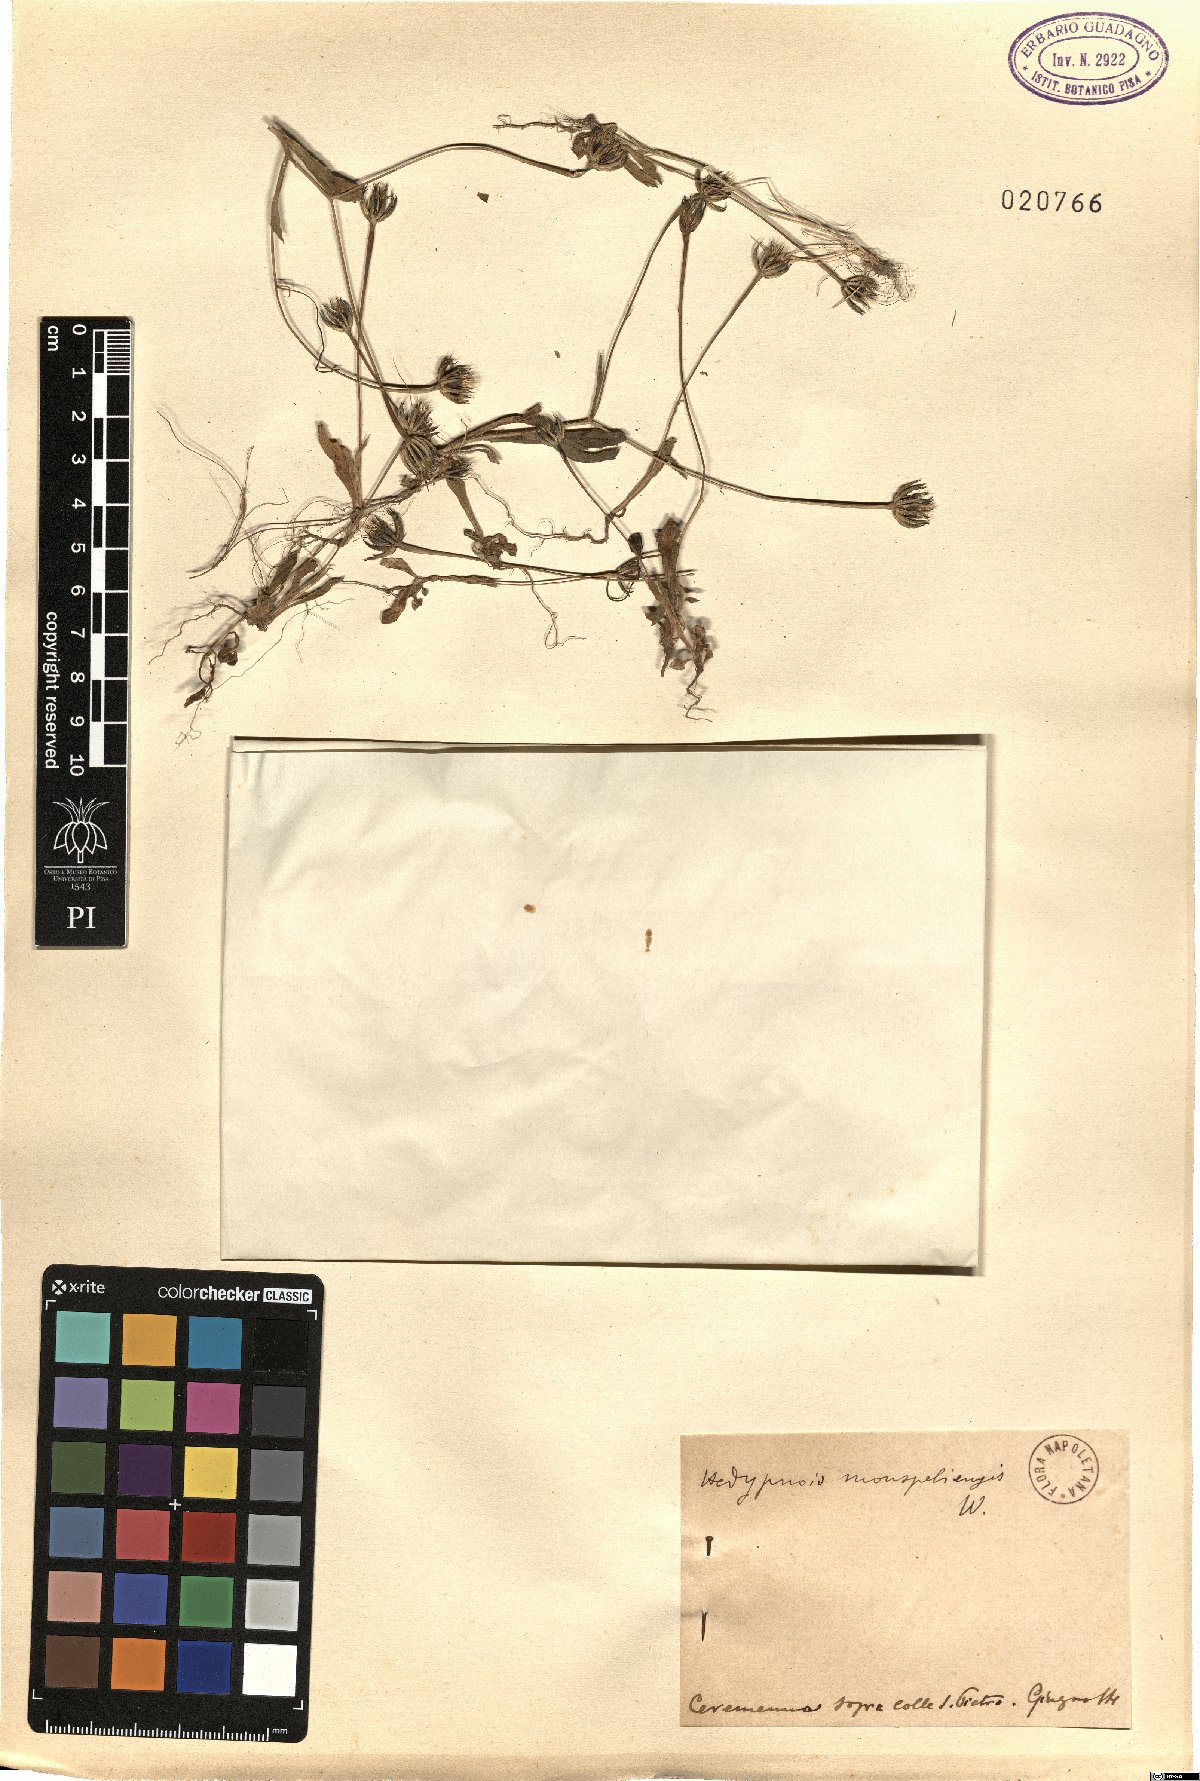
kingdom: Plantae
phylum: Tracheophyta
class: Magnoliopsida
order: Asterales
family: Asteraceae
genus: Hedypnois
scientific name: Hedypnois rhagadioloides
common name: Cretan weed
